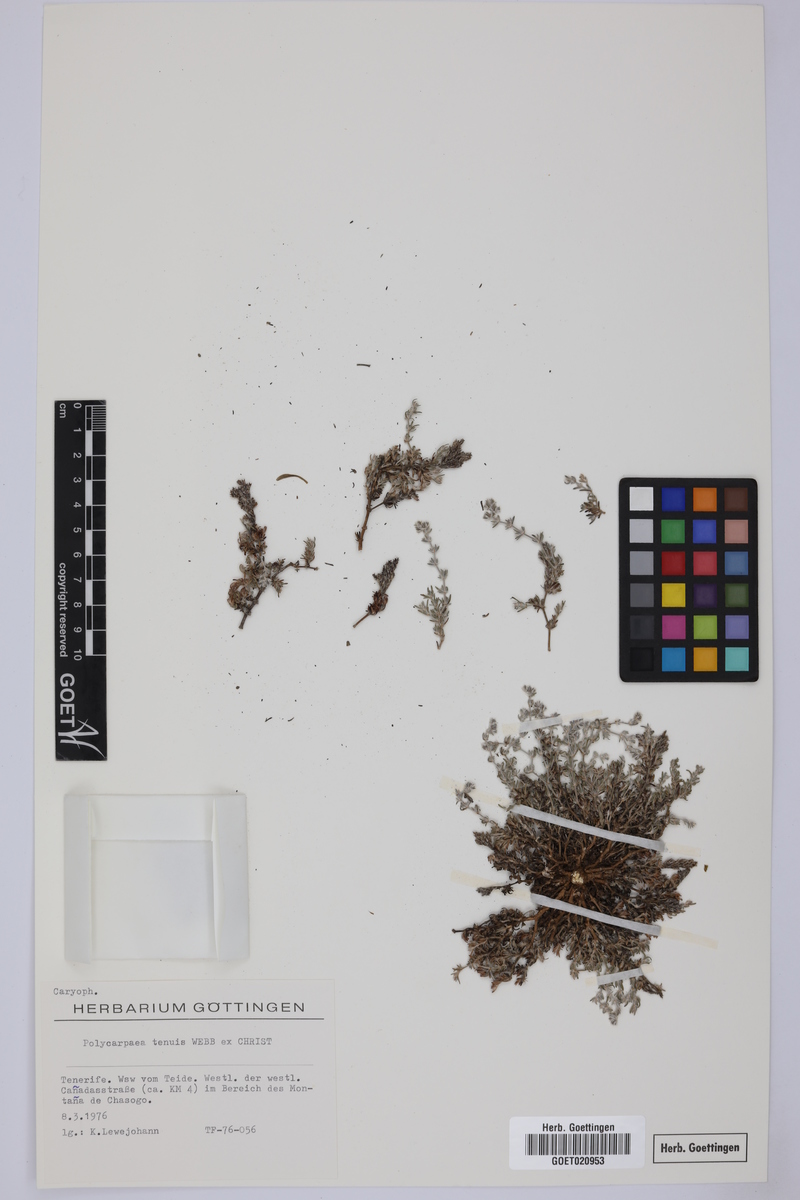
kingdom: Plantae
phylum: Tracheophyta
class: Magnoliopsida
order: Caryophyllales
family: Caryophyllaceae
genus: Polycarpaea
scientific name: Polycarpaea tenuis
